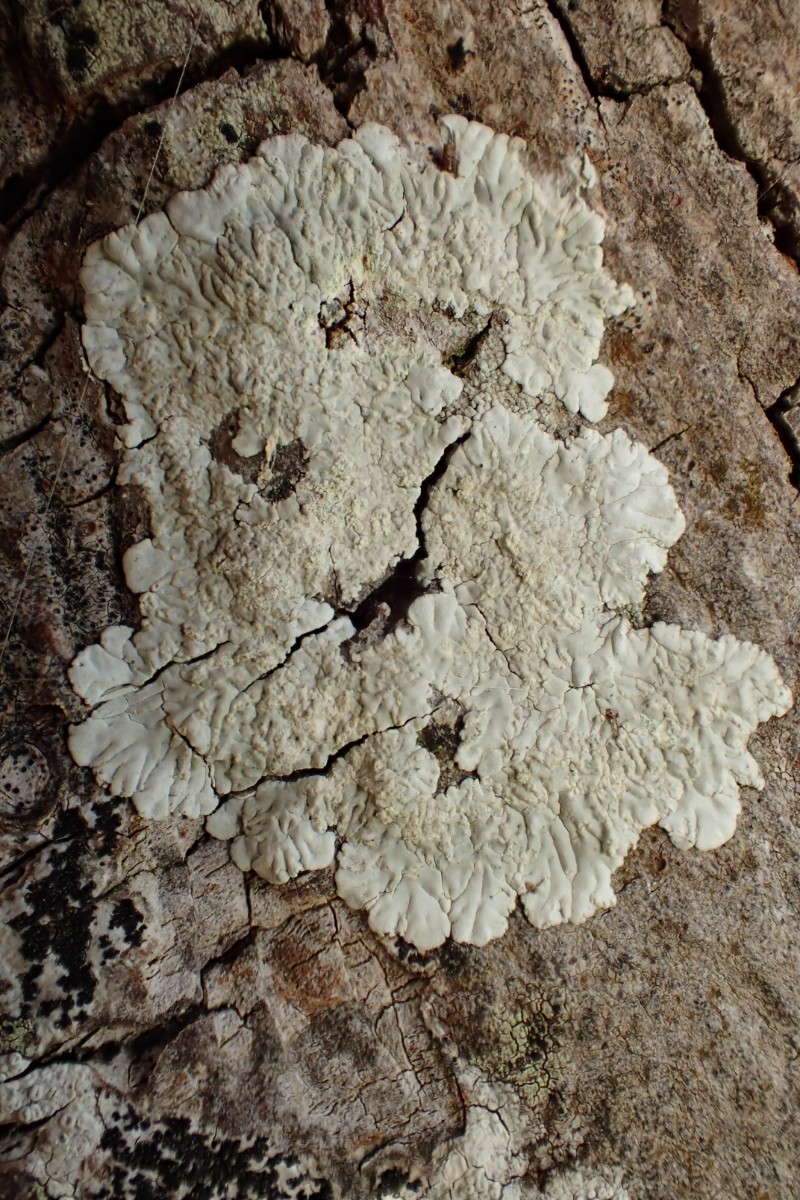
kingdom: Fungi
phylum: Ascomycota
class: Lecanoromycetes
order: Caliciales
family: Caliciaceae
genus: Diploicia
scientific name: Diploicia canescens
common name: grå støvrosetlav
